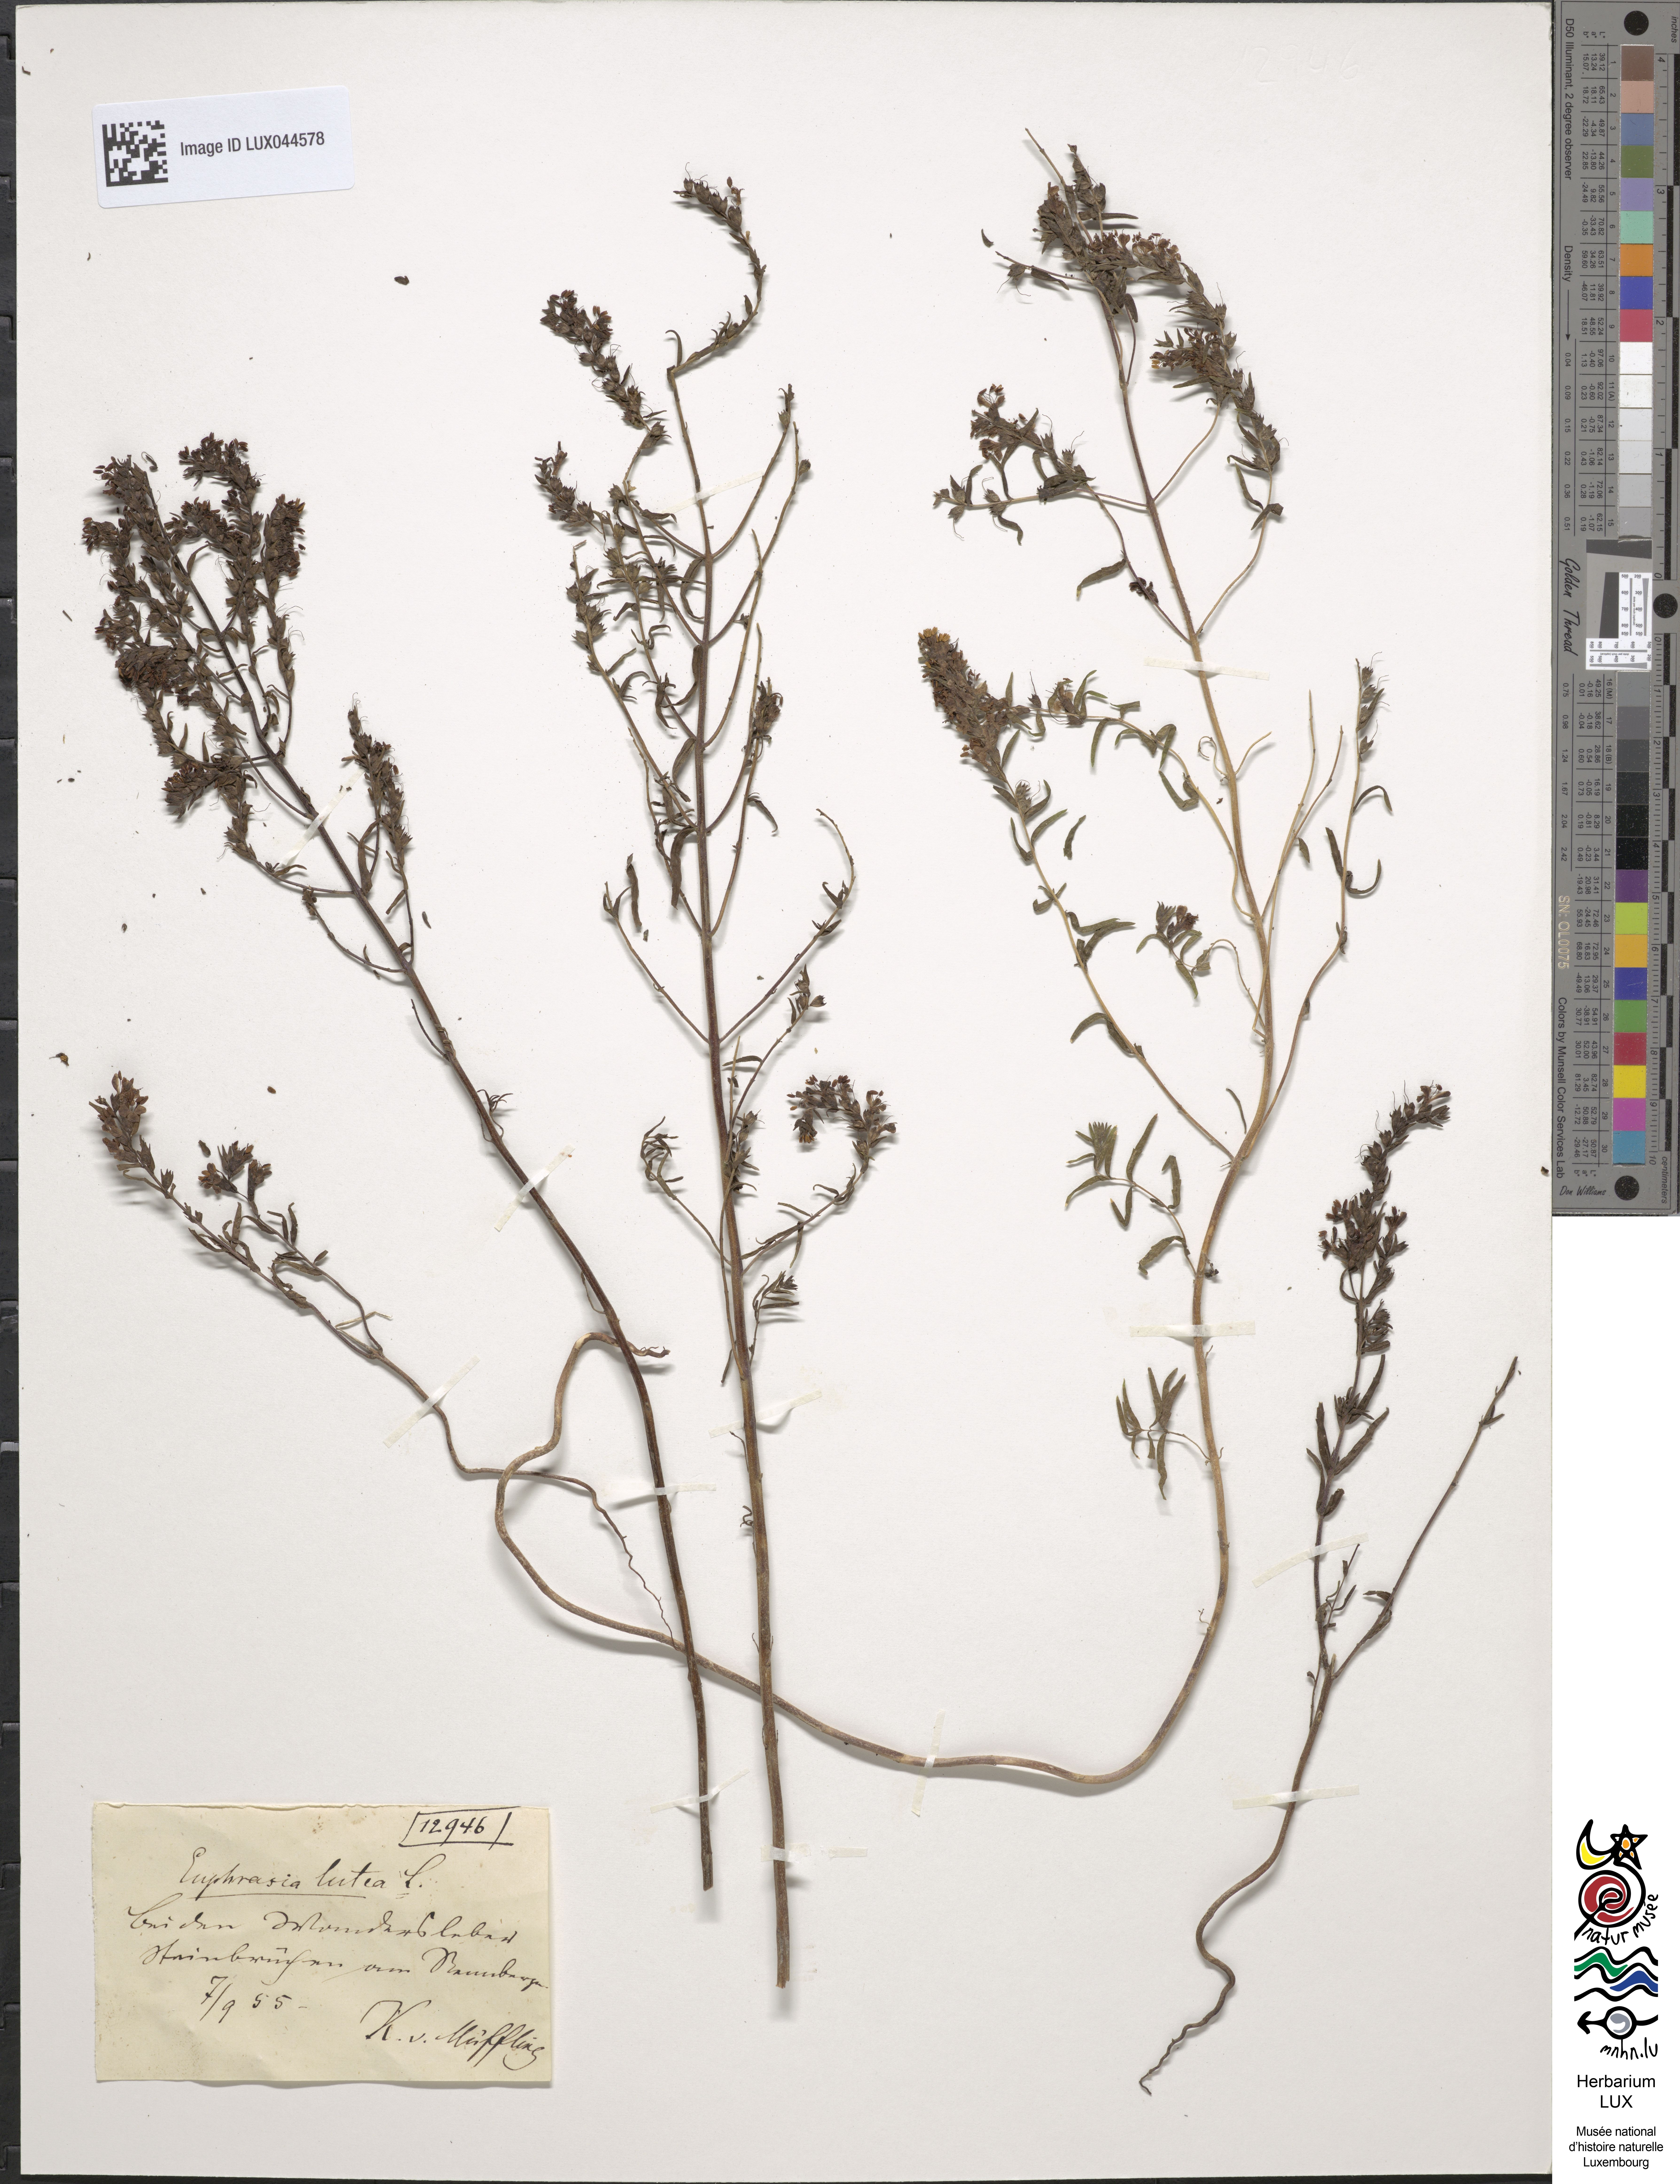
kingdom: Plantae
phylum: Tracheophyta
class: Magnoliopsida
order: Lamiales
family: Orobanchaceae
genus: Odontites
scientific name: Odontites luteus
